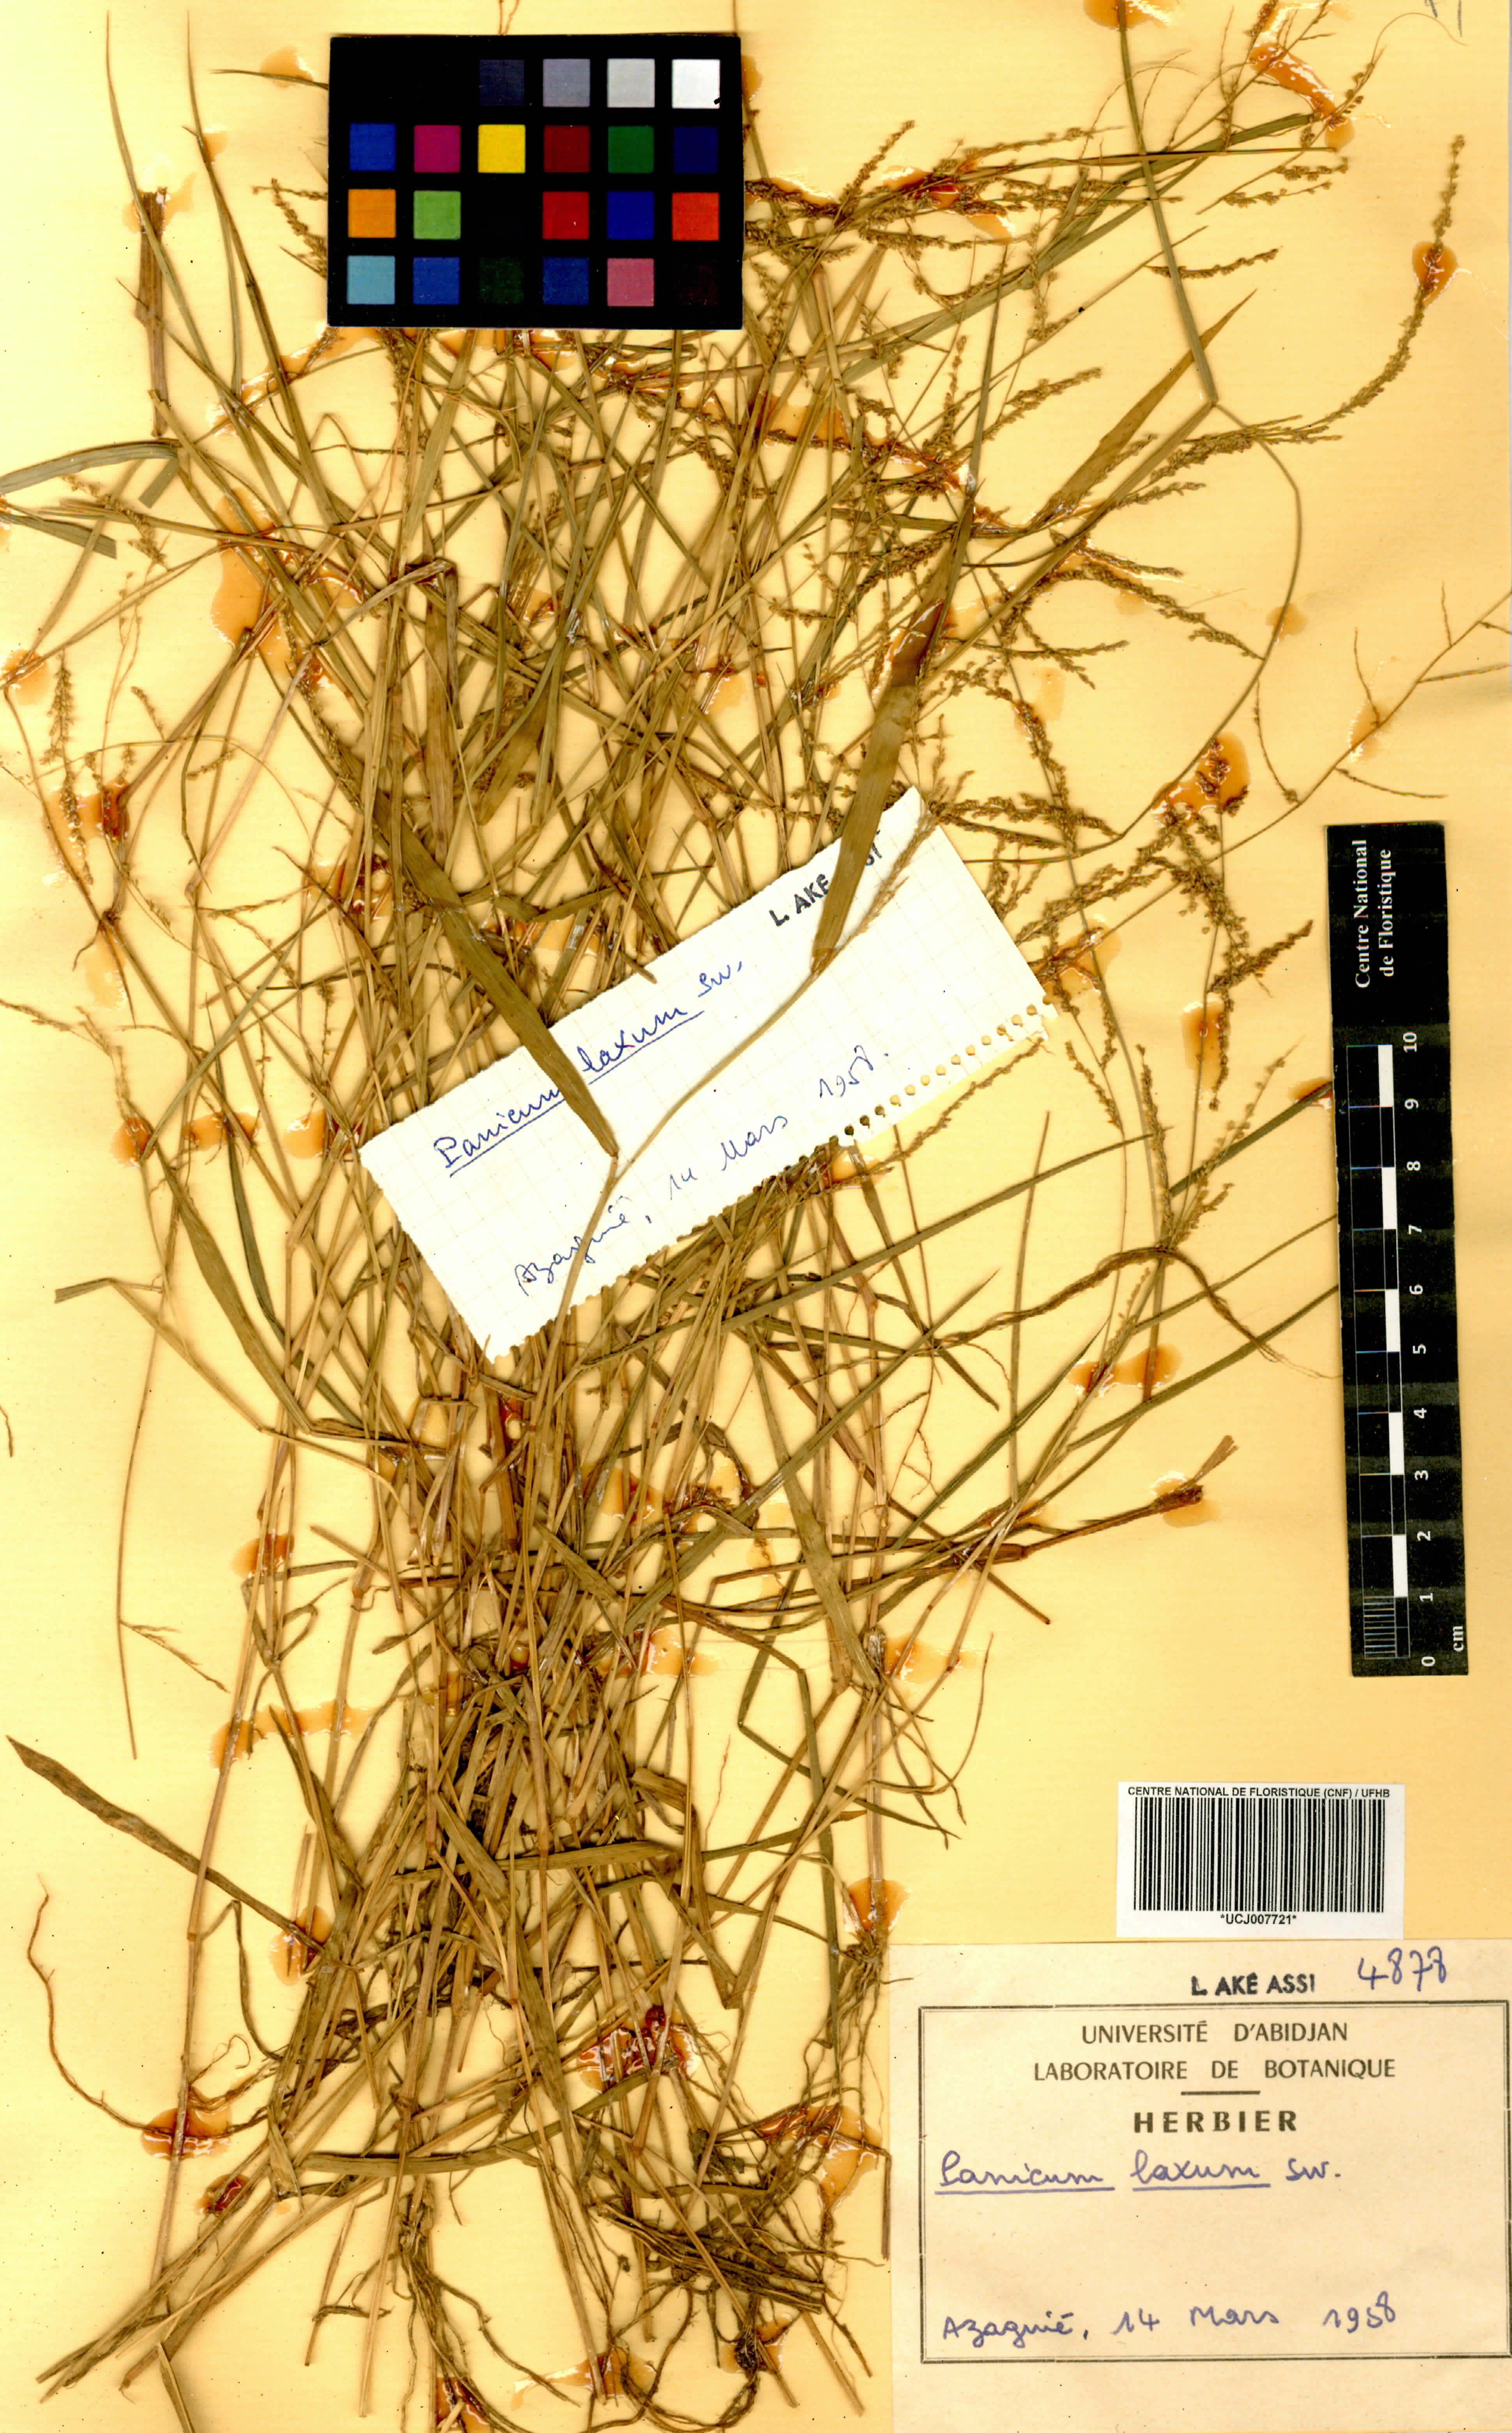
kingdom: Plantae
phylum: Tracheophyta
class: Liliopsida
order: Poales
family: Poaceae
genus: Steinchisma
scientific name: Steinchisma laxum
